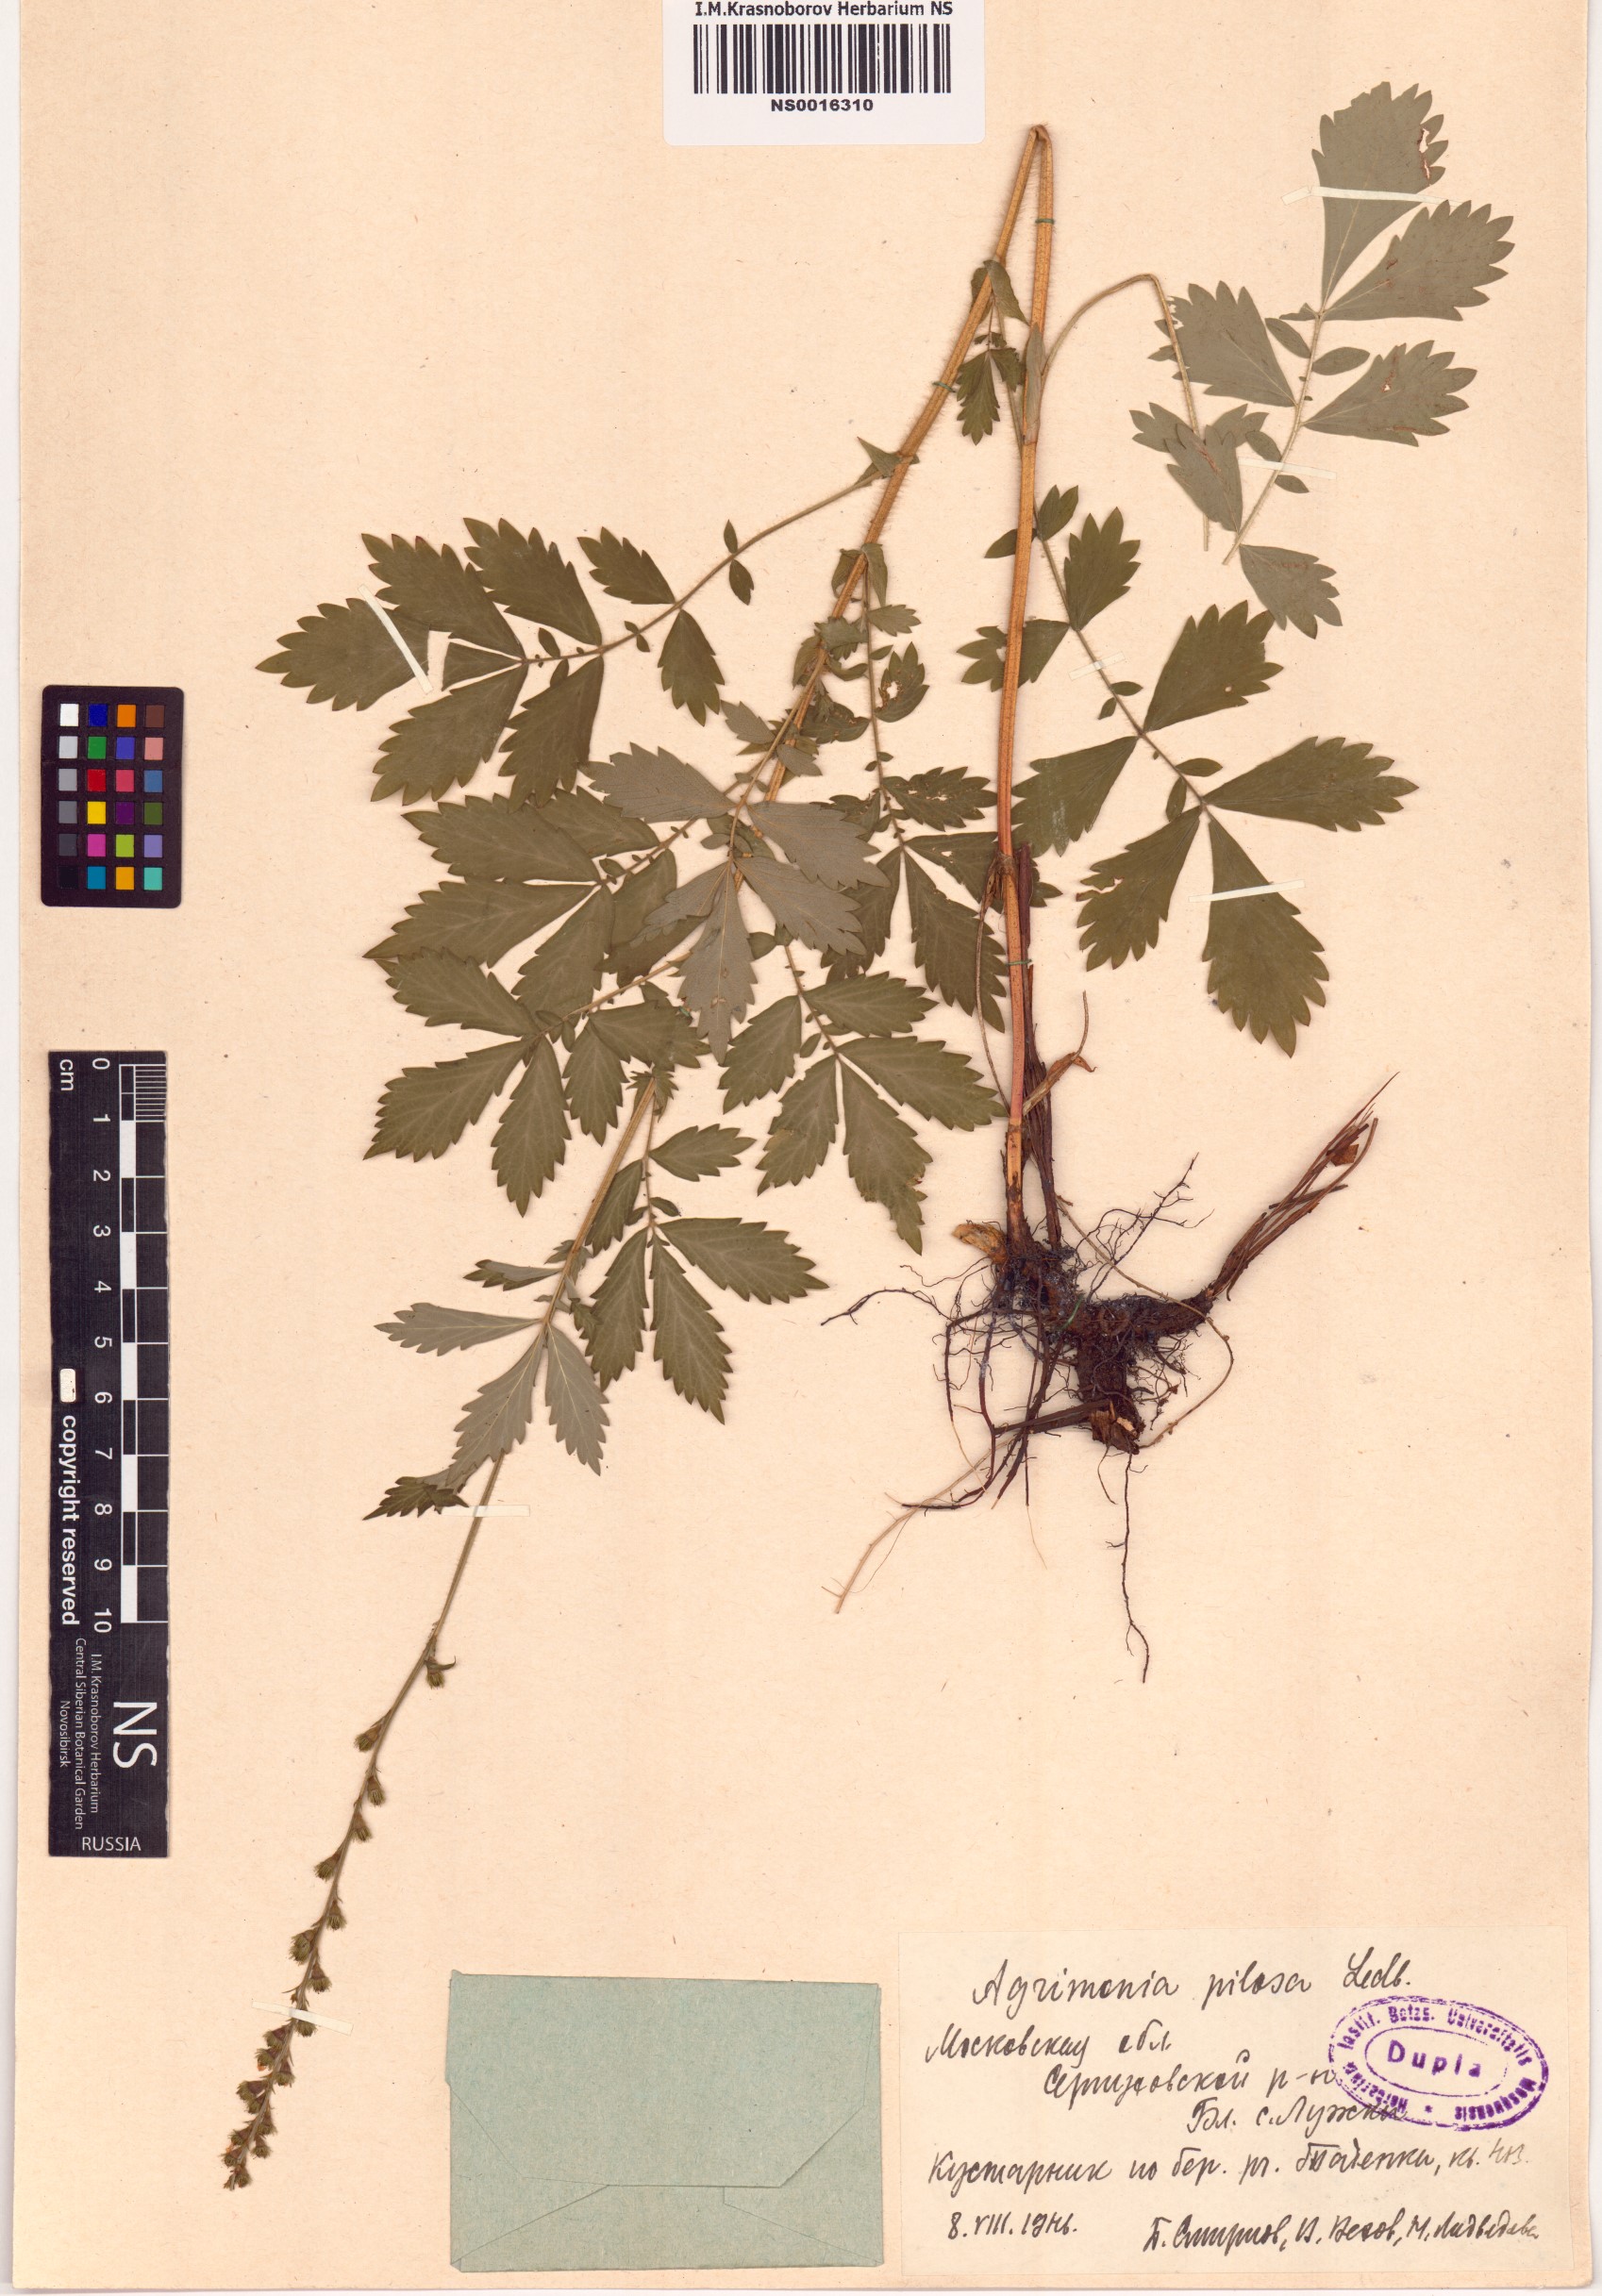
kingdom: Plantae
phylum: Tracheophyta
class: Magnoliopsida
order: Rosales
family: Rosaceae
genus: Agrimonia
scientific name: Agrimonia pilosa
